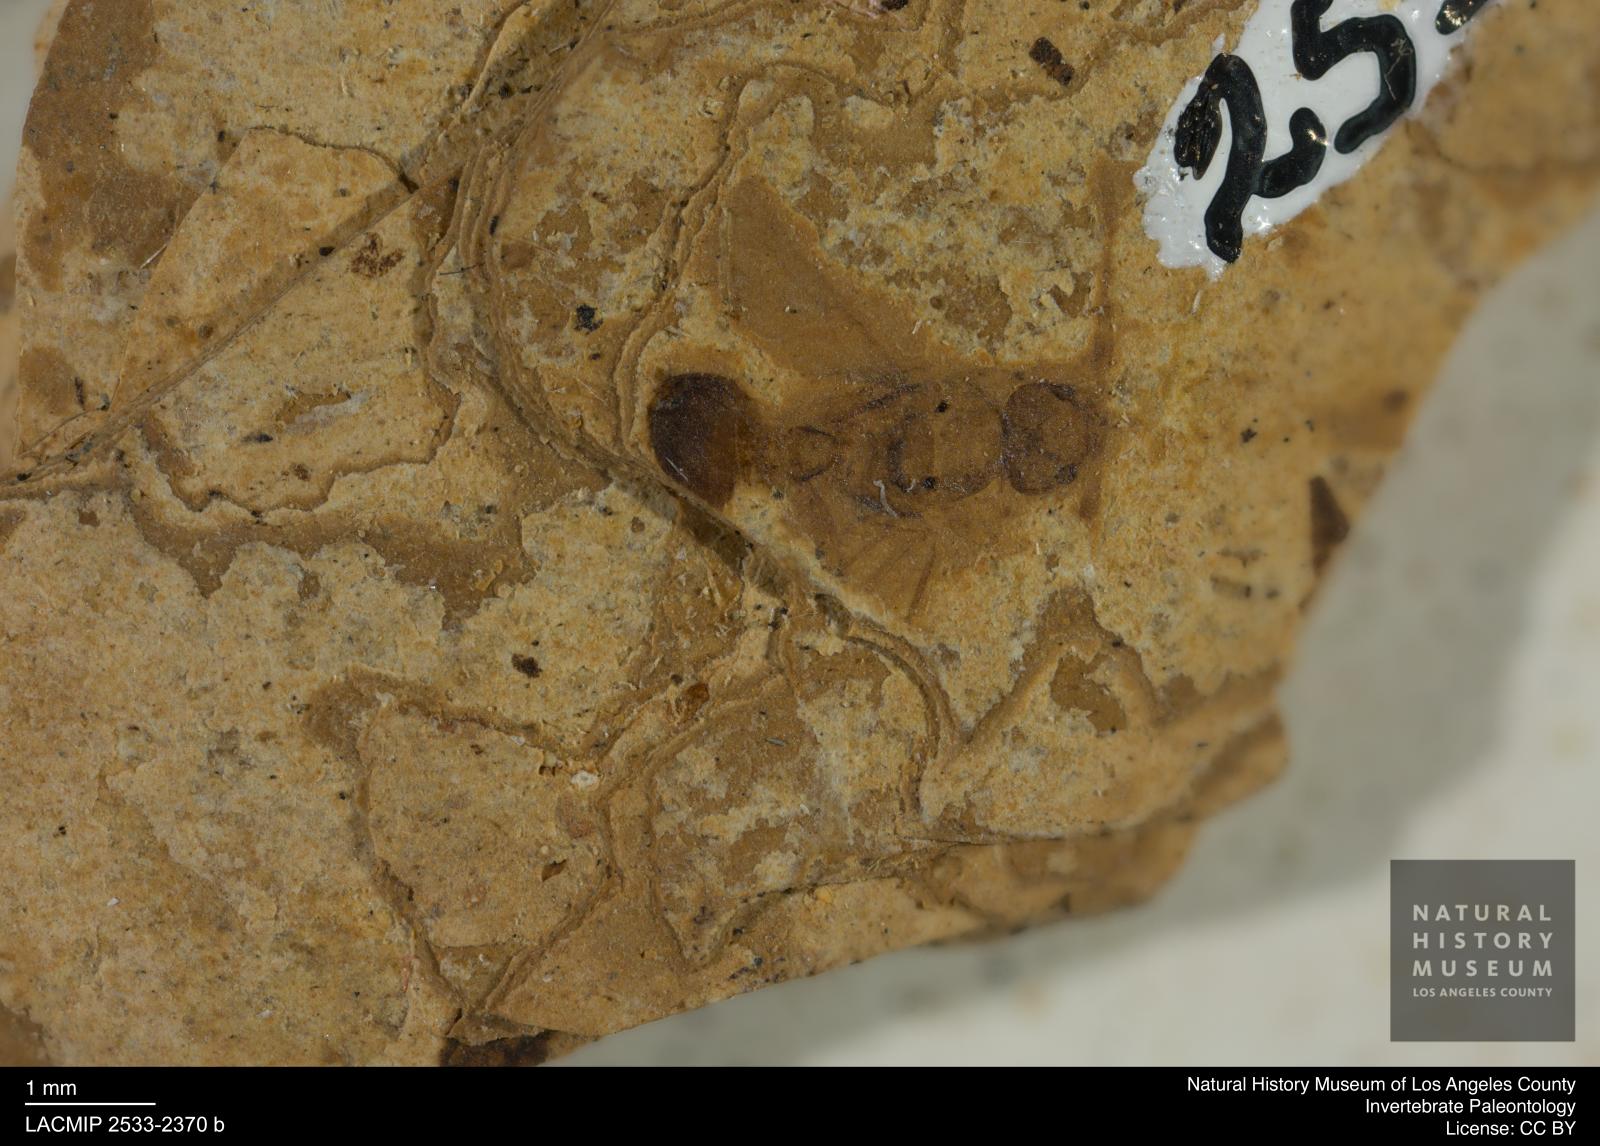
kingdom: Animalia
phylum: Arthropoda
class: Insecta
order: Hymenoptera
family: Formicidae
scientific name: Formicidae
